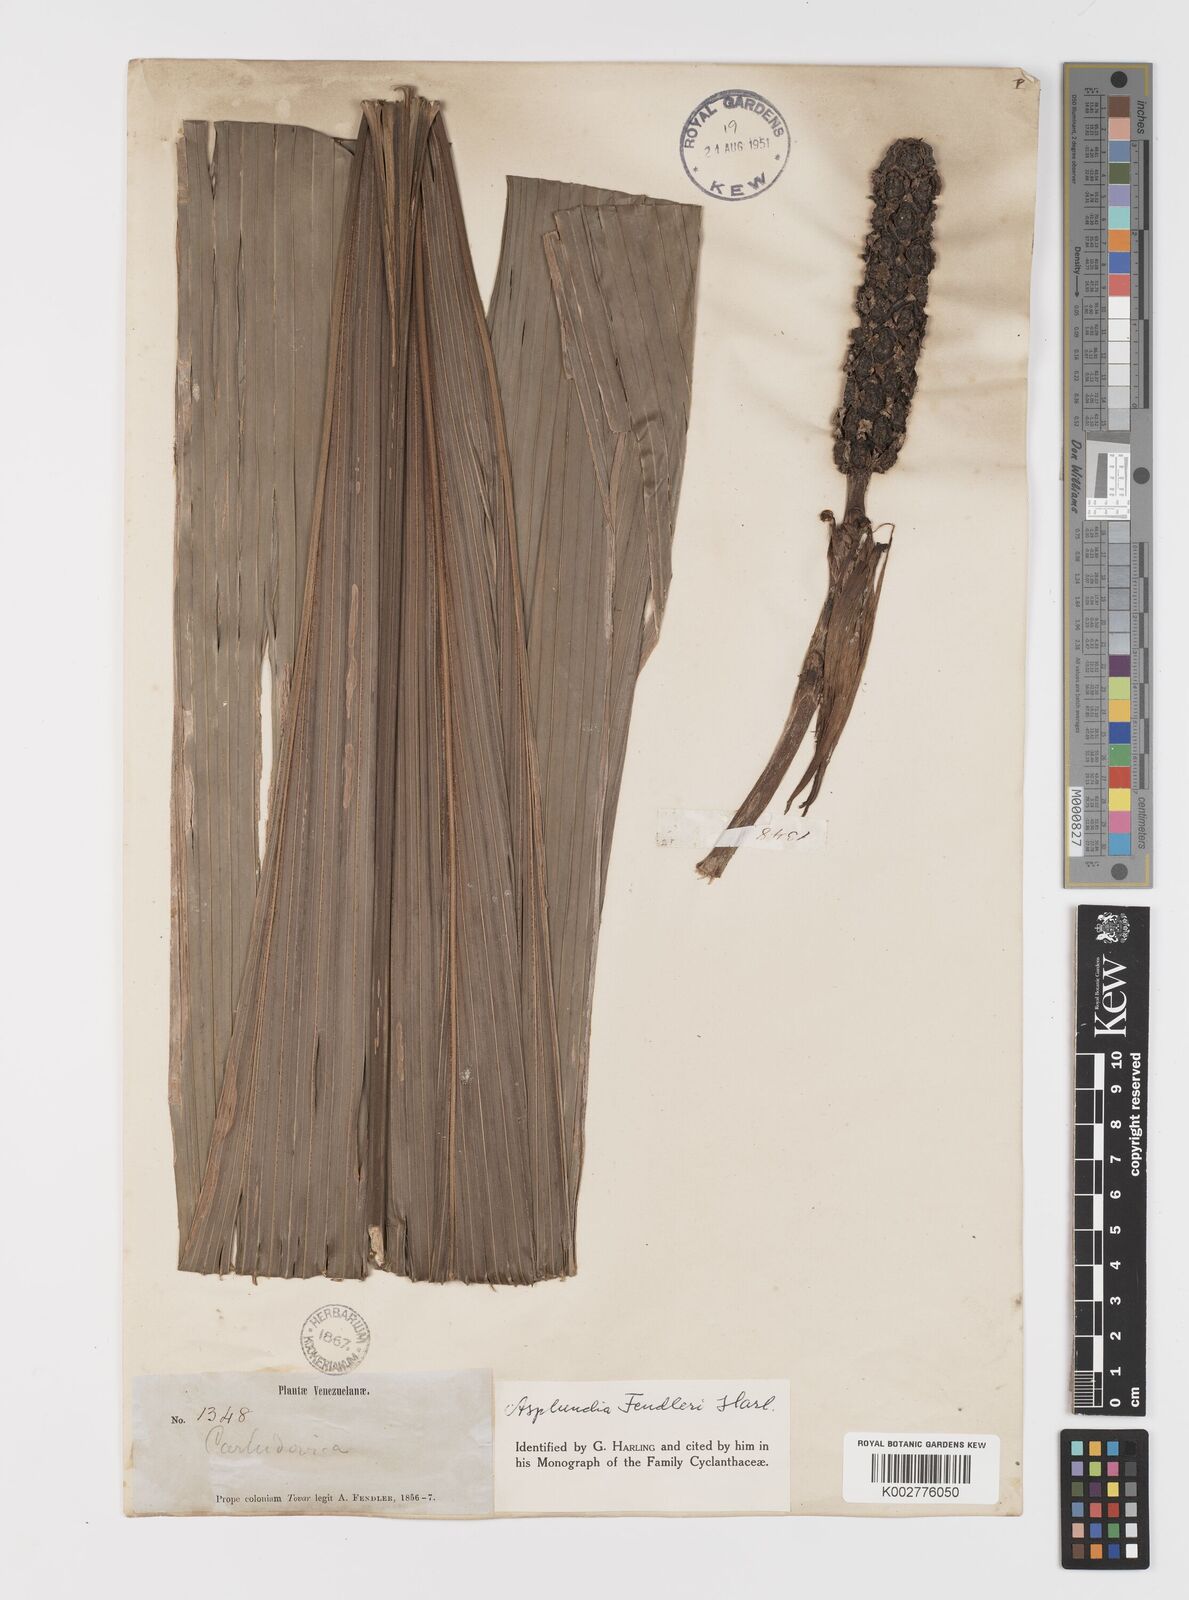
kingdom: Plantae
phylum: Tracheophyta
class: Liliopsida
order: Pandanales
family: Cyclanthaceae
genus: Asplundia
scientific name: Asplundia fendleri
